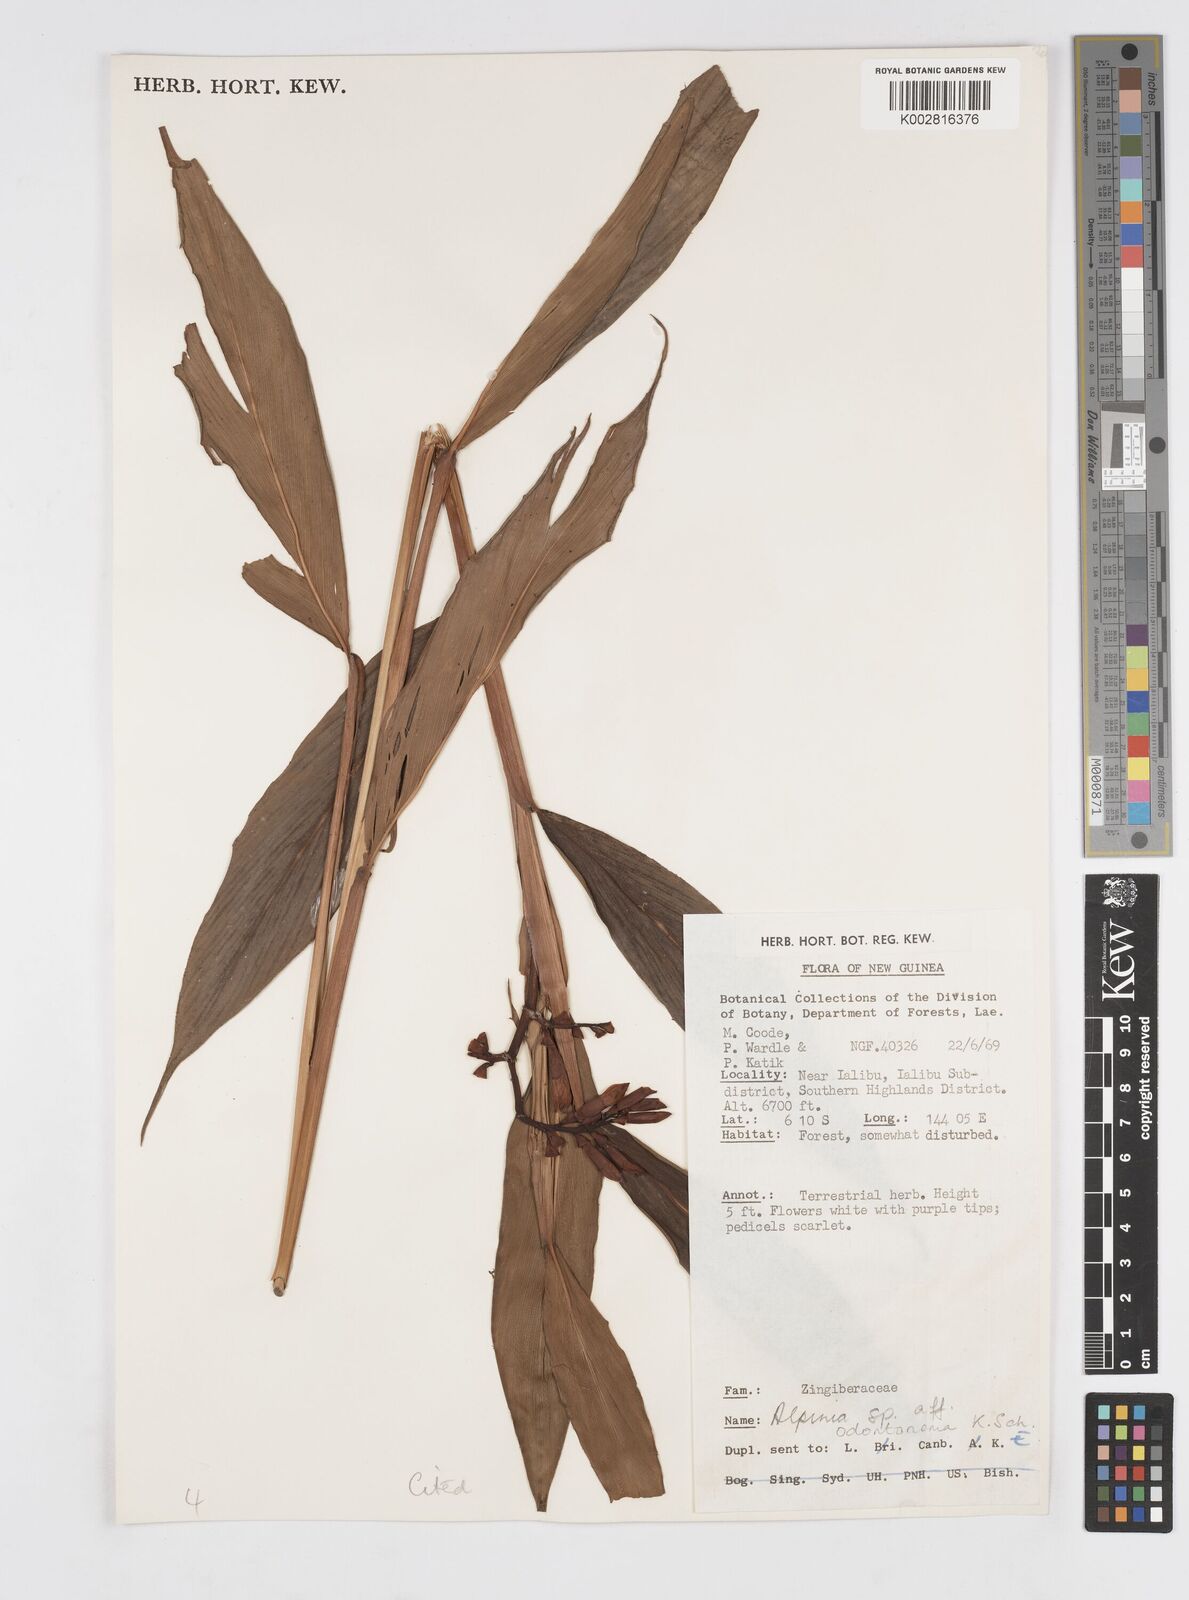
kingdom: Plantae
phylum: Tracheophyta
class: Liliopsida
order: Zingiberales
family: Zingiberaceae
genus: Alpinia
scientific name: Alpinia odontonema
